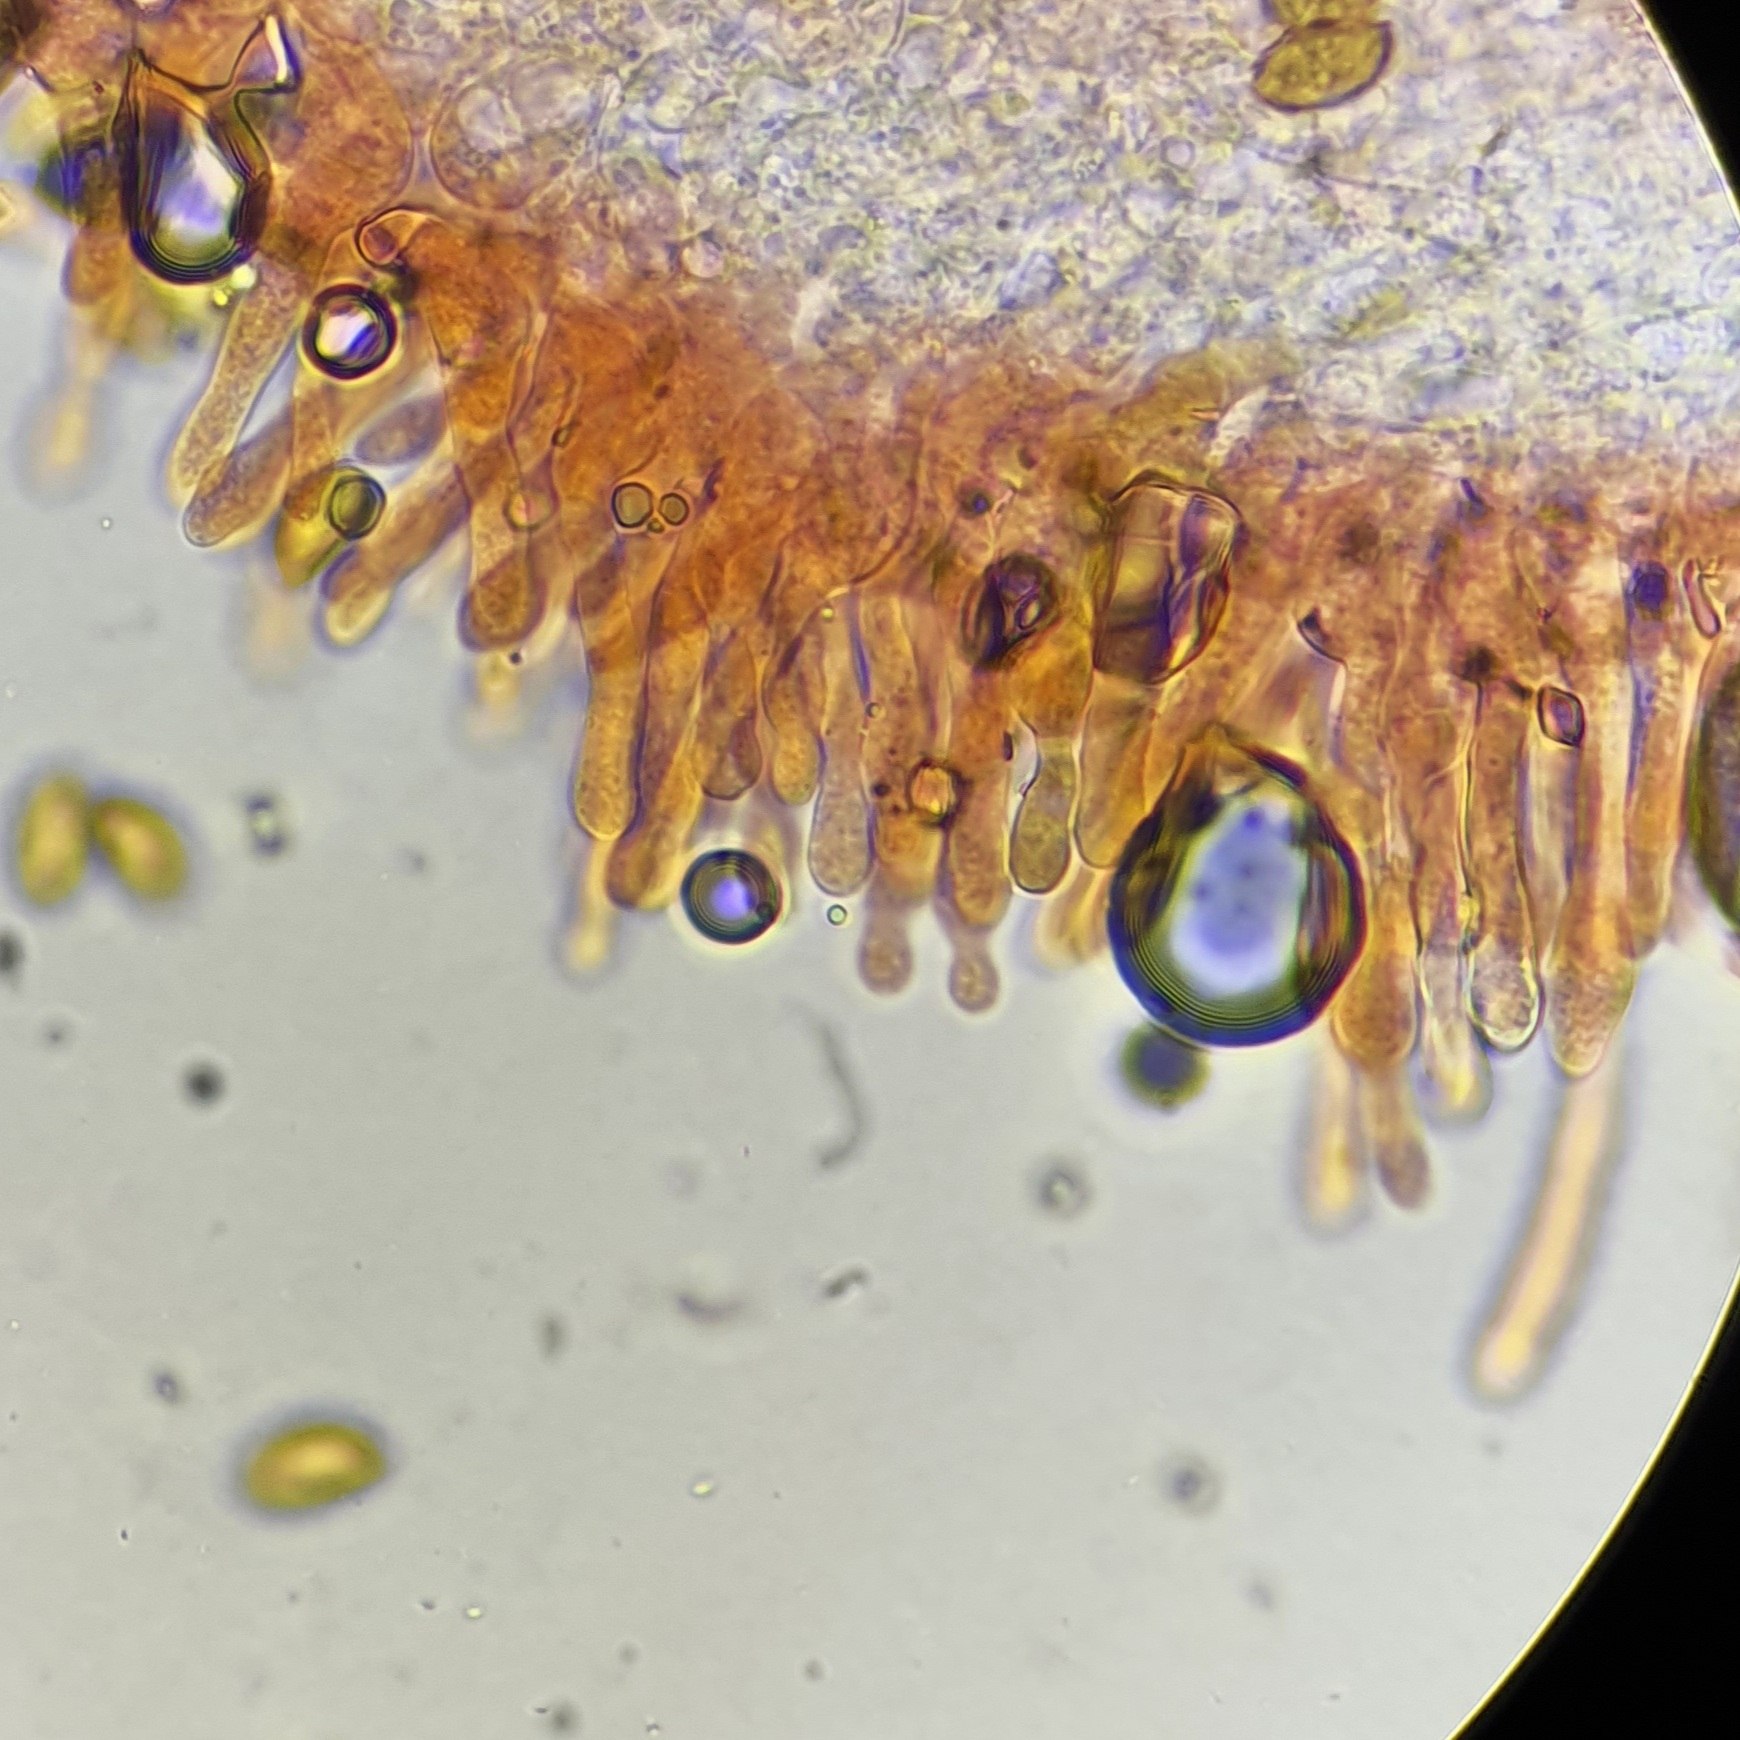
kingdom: Fungi
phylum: Basidiomycota
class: Agaricomycetes
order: Agaricales
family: Hymenogastraceae
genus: Galerina
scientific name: Galerina pumila
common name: honninggul hjelmhat
